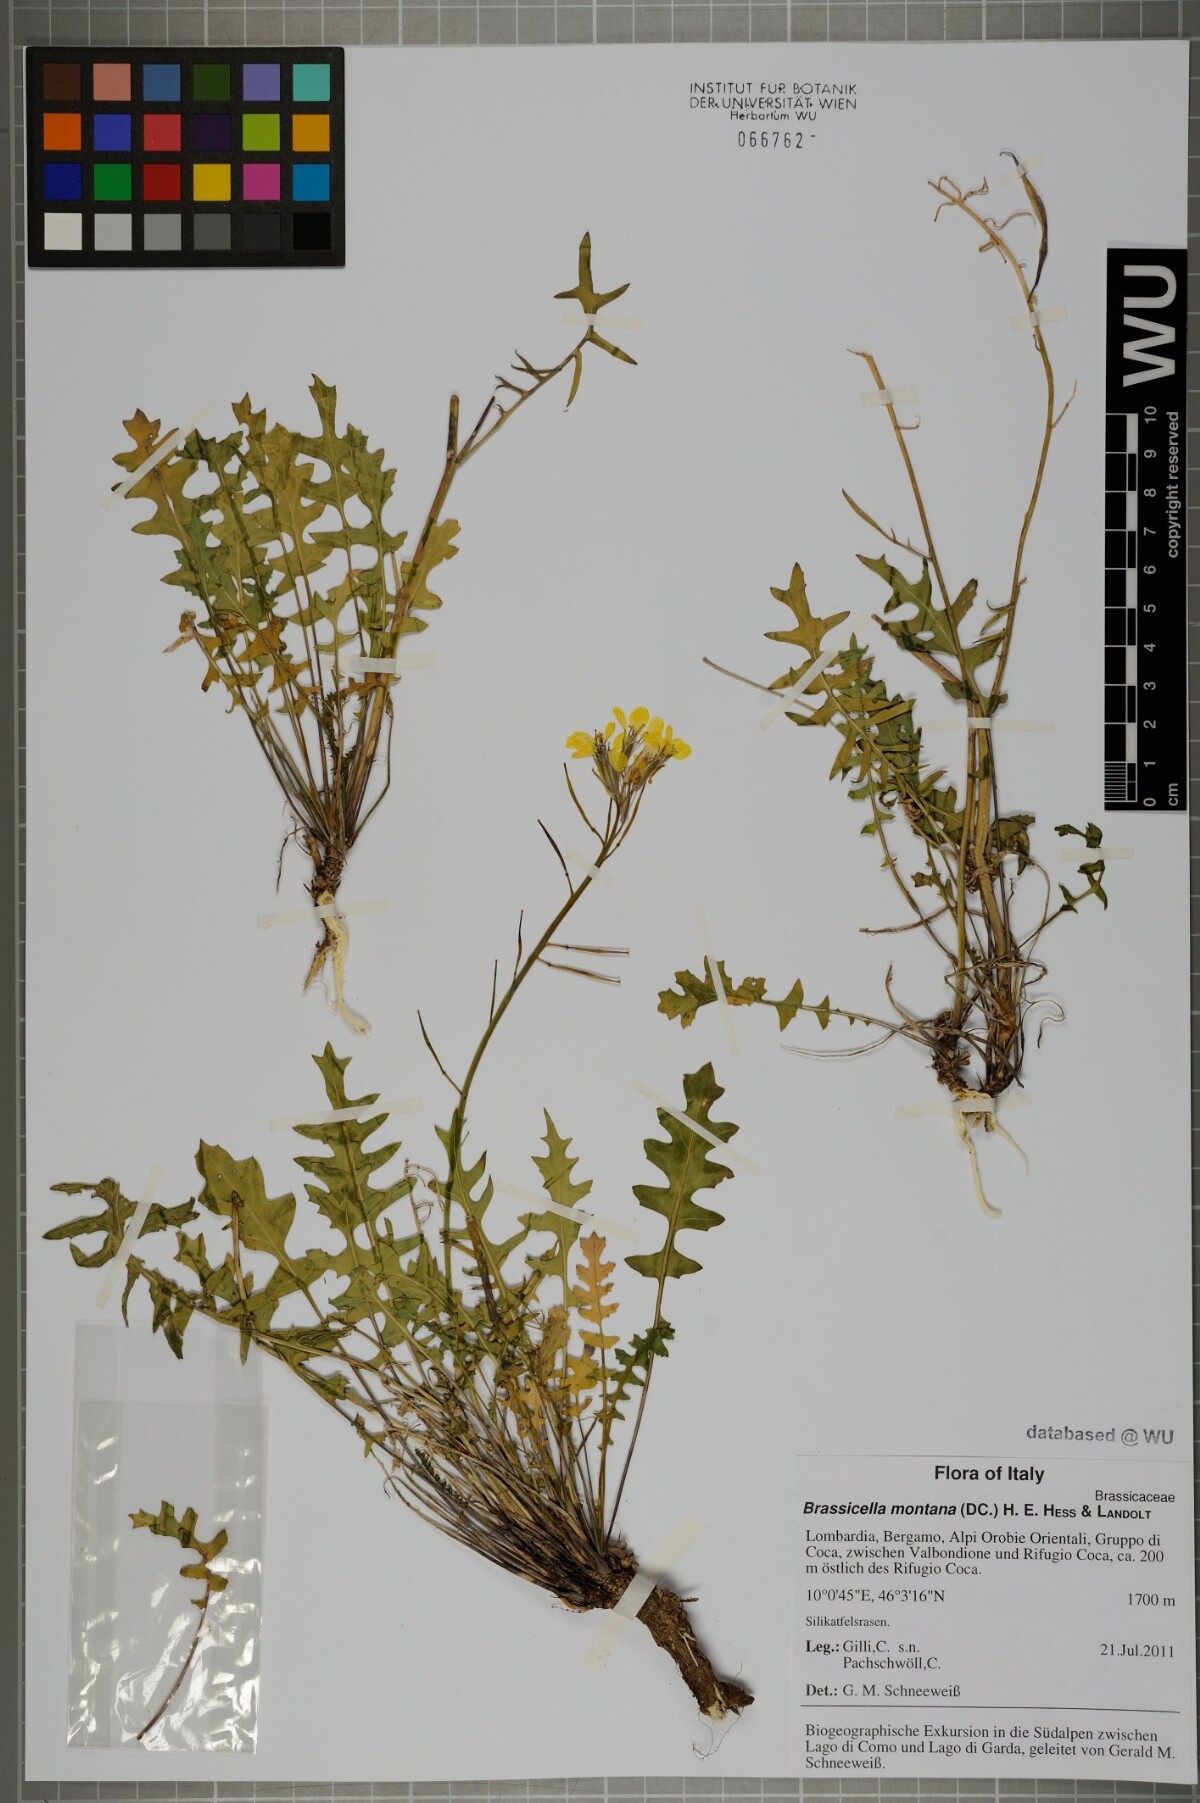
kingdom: Plantae
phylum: Tracheophyta
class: Magnoliopsida
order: Brassicales
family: Brassicaceae
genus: Coincya
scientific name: Coincya monensis
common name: Star-mustard
